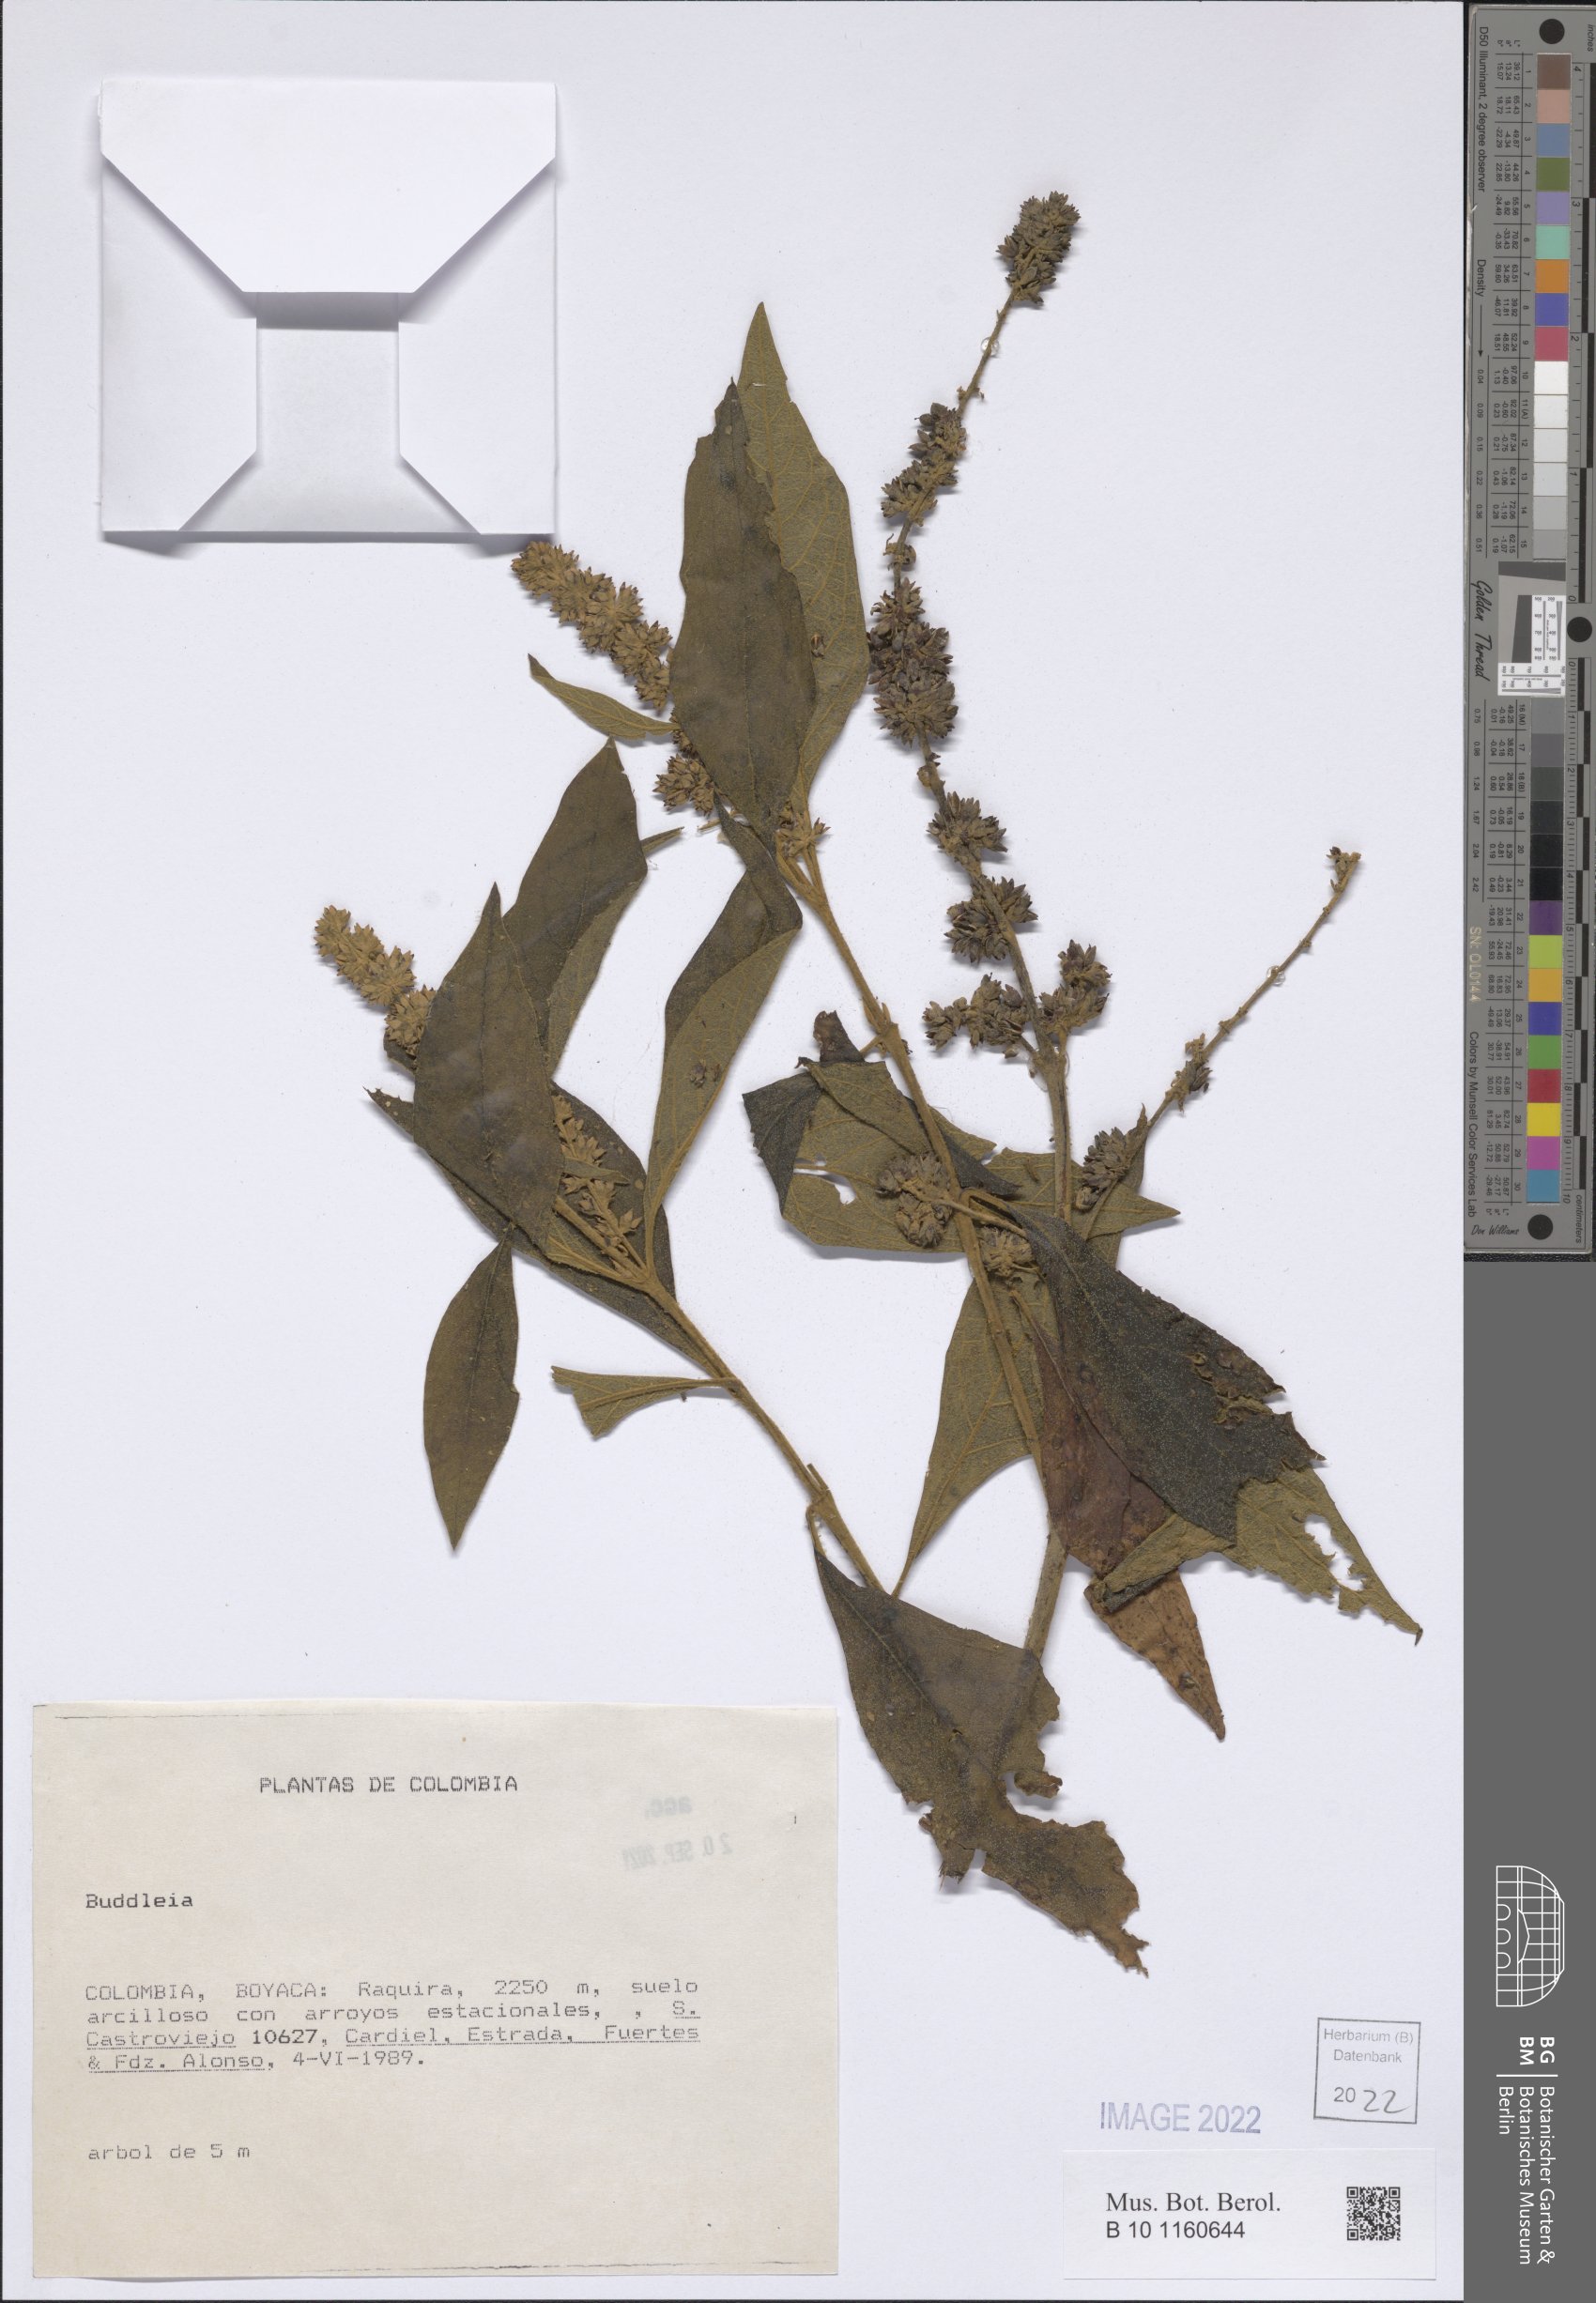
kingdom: Plantae
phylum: Tracheophyta
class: Magnoliopsida
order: Lamiales
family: Scrophulariaceae
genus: Buddleja
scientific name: Buddleja
